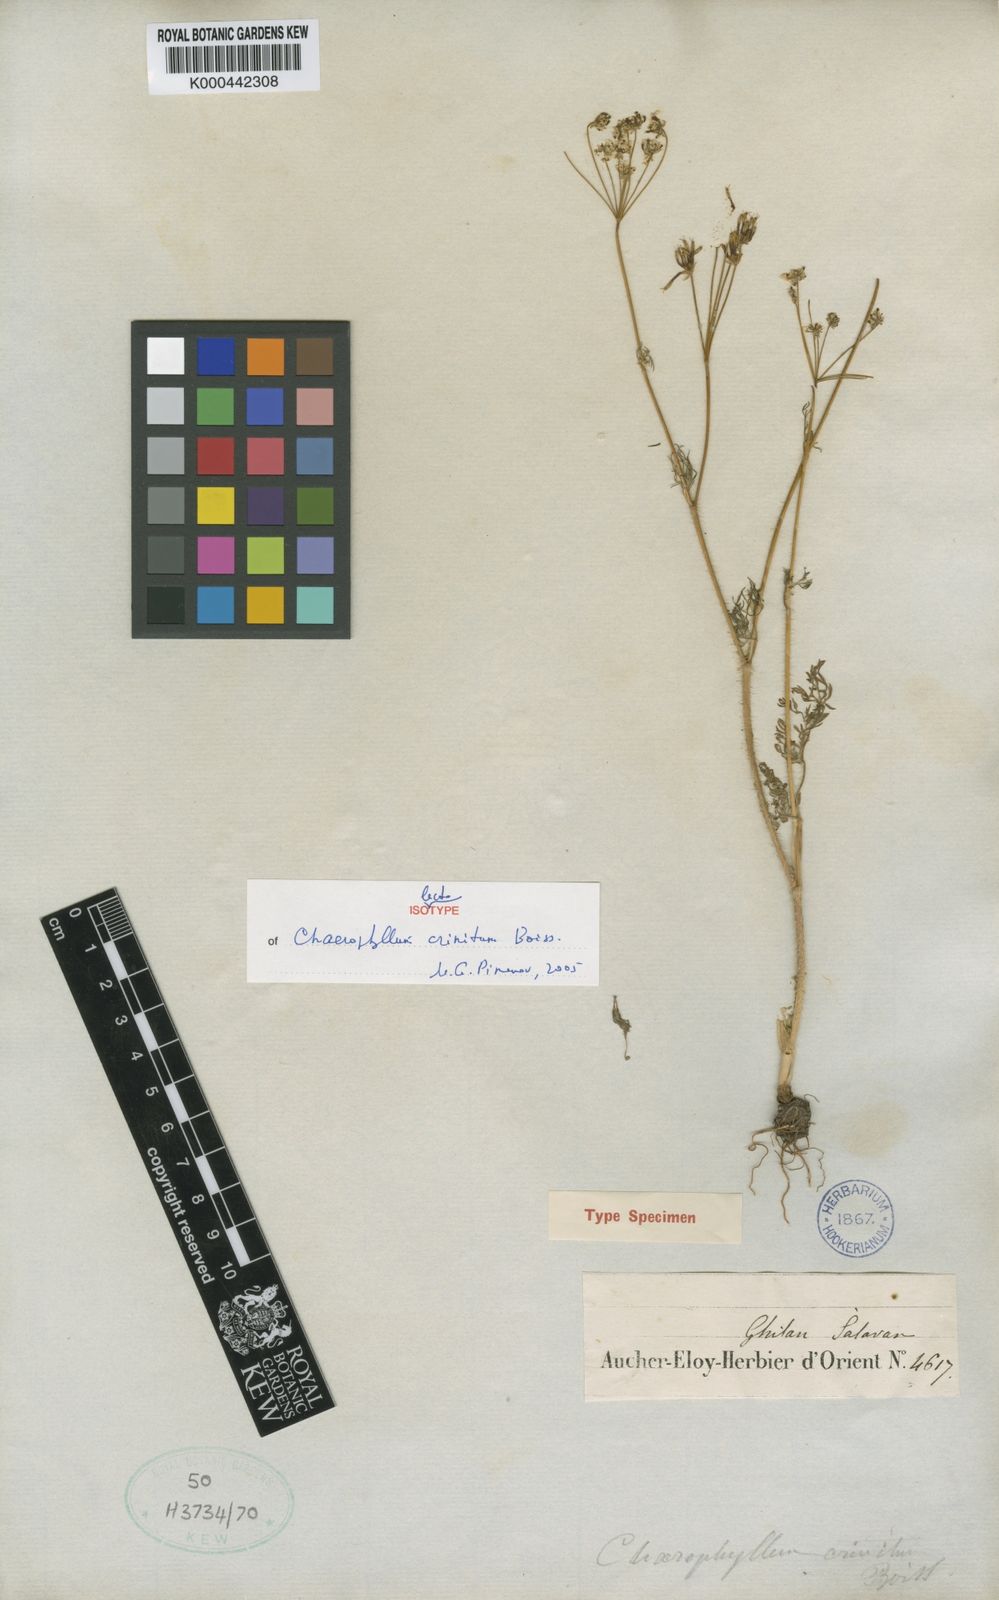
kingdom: Plantae
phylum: Tracheophyta
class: Magnoliopsida
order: Apiales
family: Apiaceae
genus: Chaerophyllum
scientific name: Chaerophyllum crinitum
